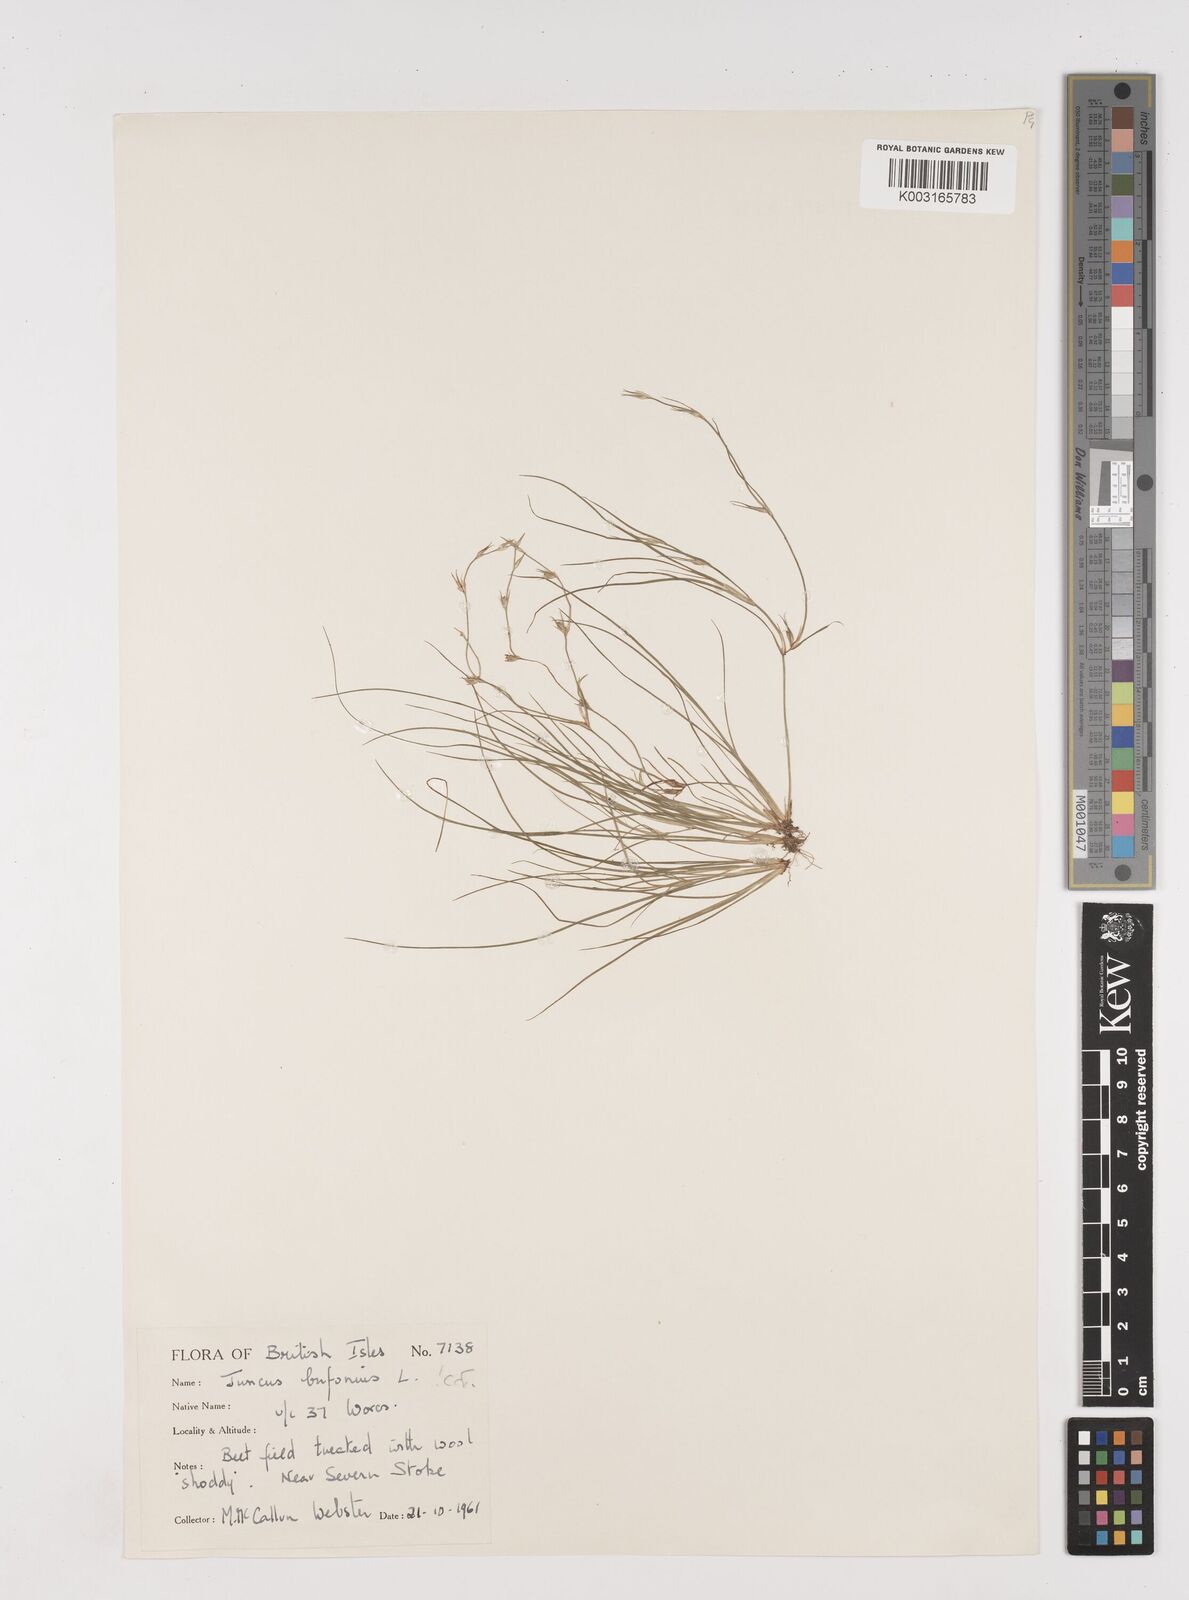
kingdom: Plantae
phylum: Tracheophyta
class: Liliopsida
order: Poales
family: Juncaceae
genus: Juncus
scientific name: Juncus bufonius
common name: Toad rush
